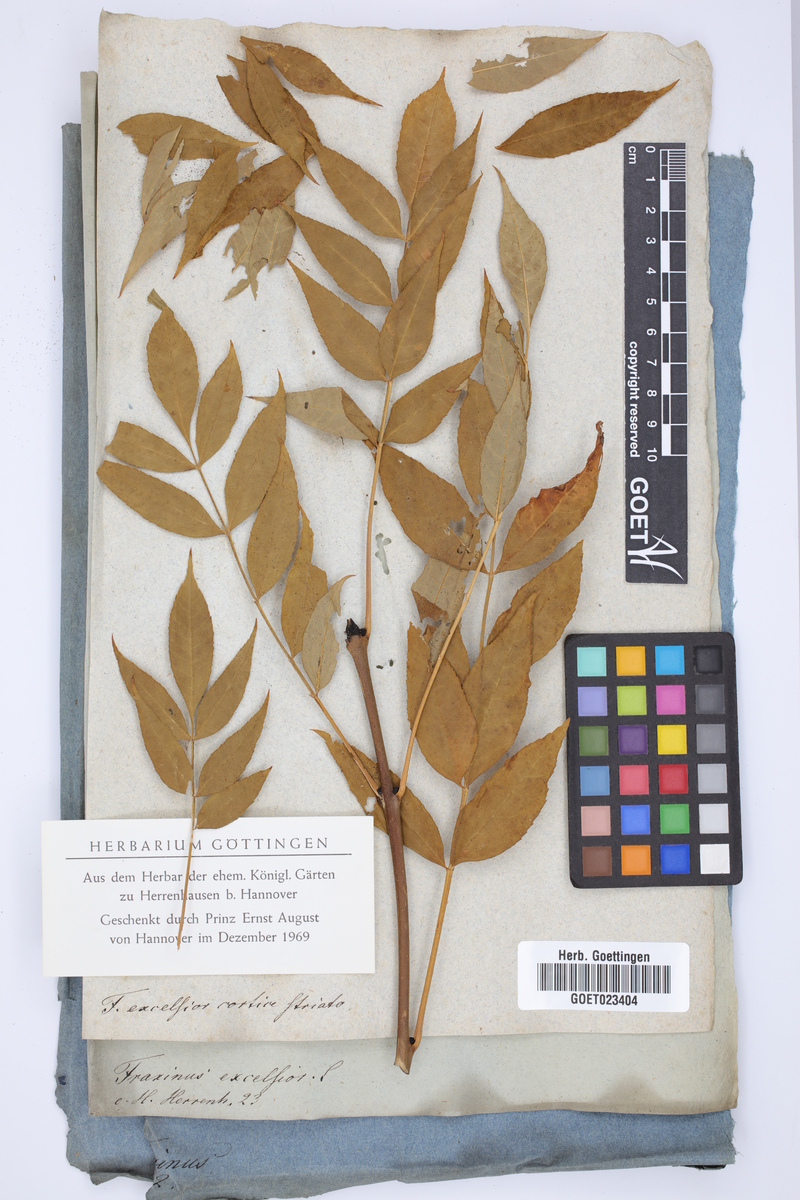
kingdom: Plantae
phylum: Tracheophyta
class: Magnoliopsida
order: Lamiales
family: Oleaceae
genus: Fraxinus
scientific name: Fraxinus excelsior
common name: European ash
